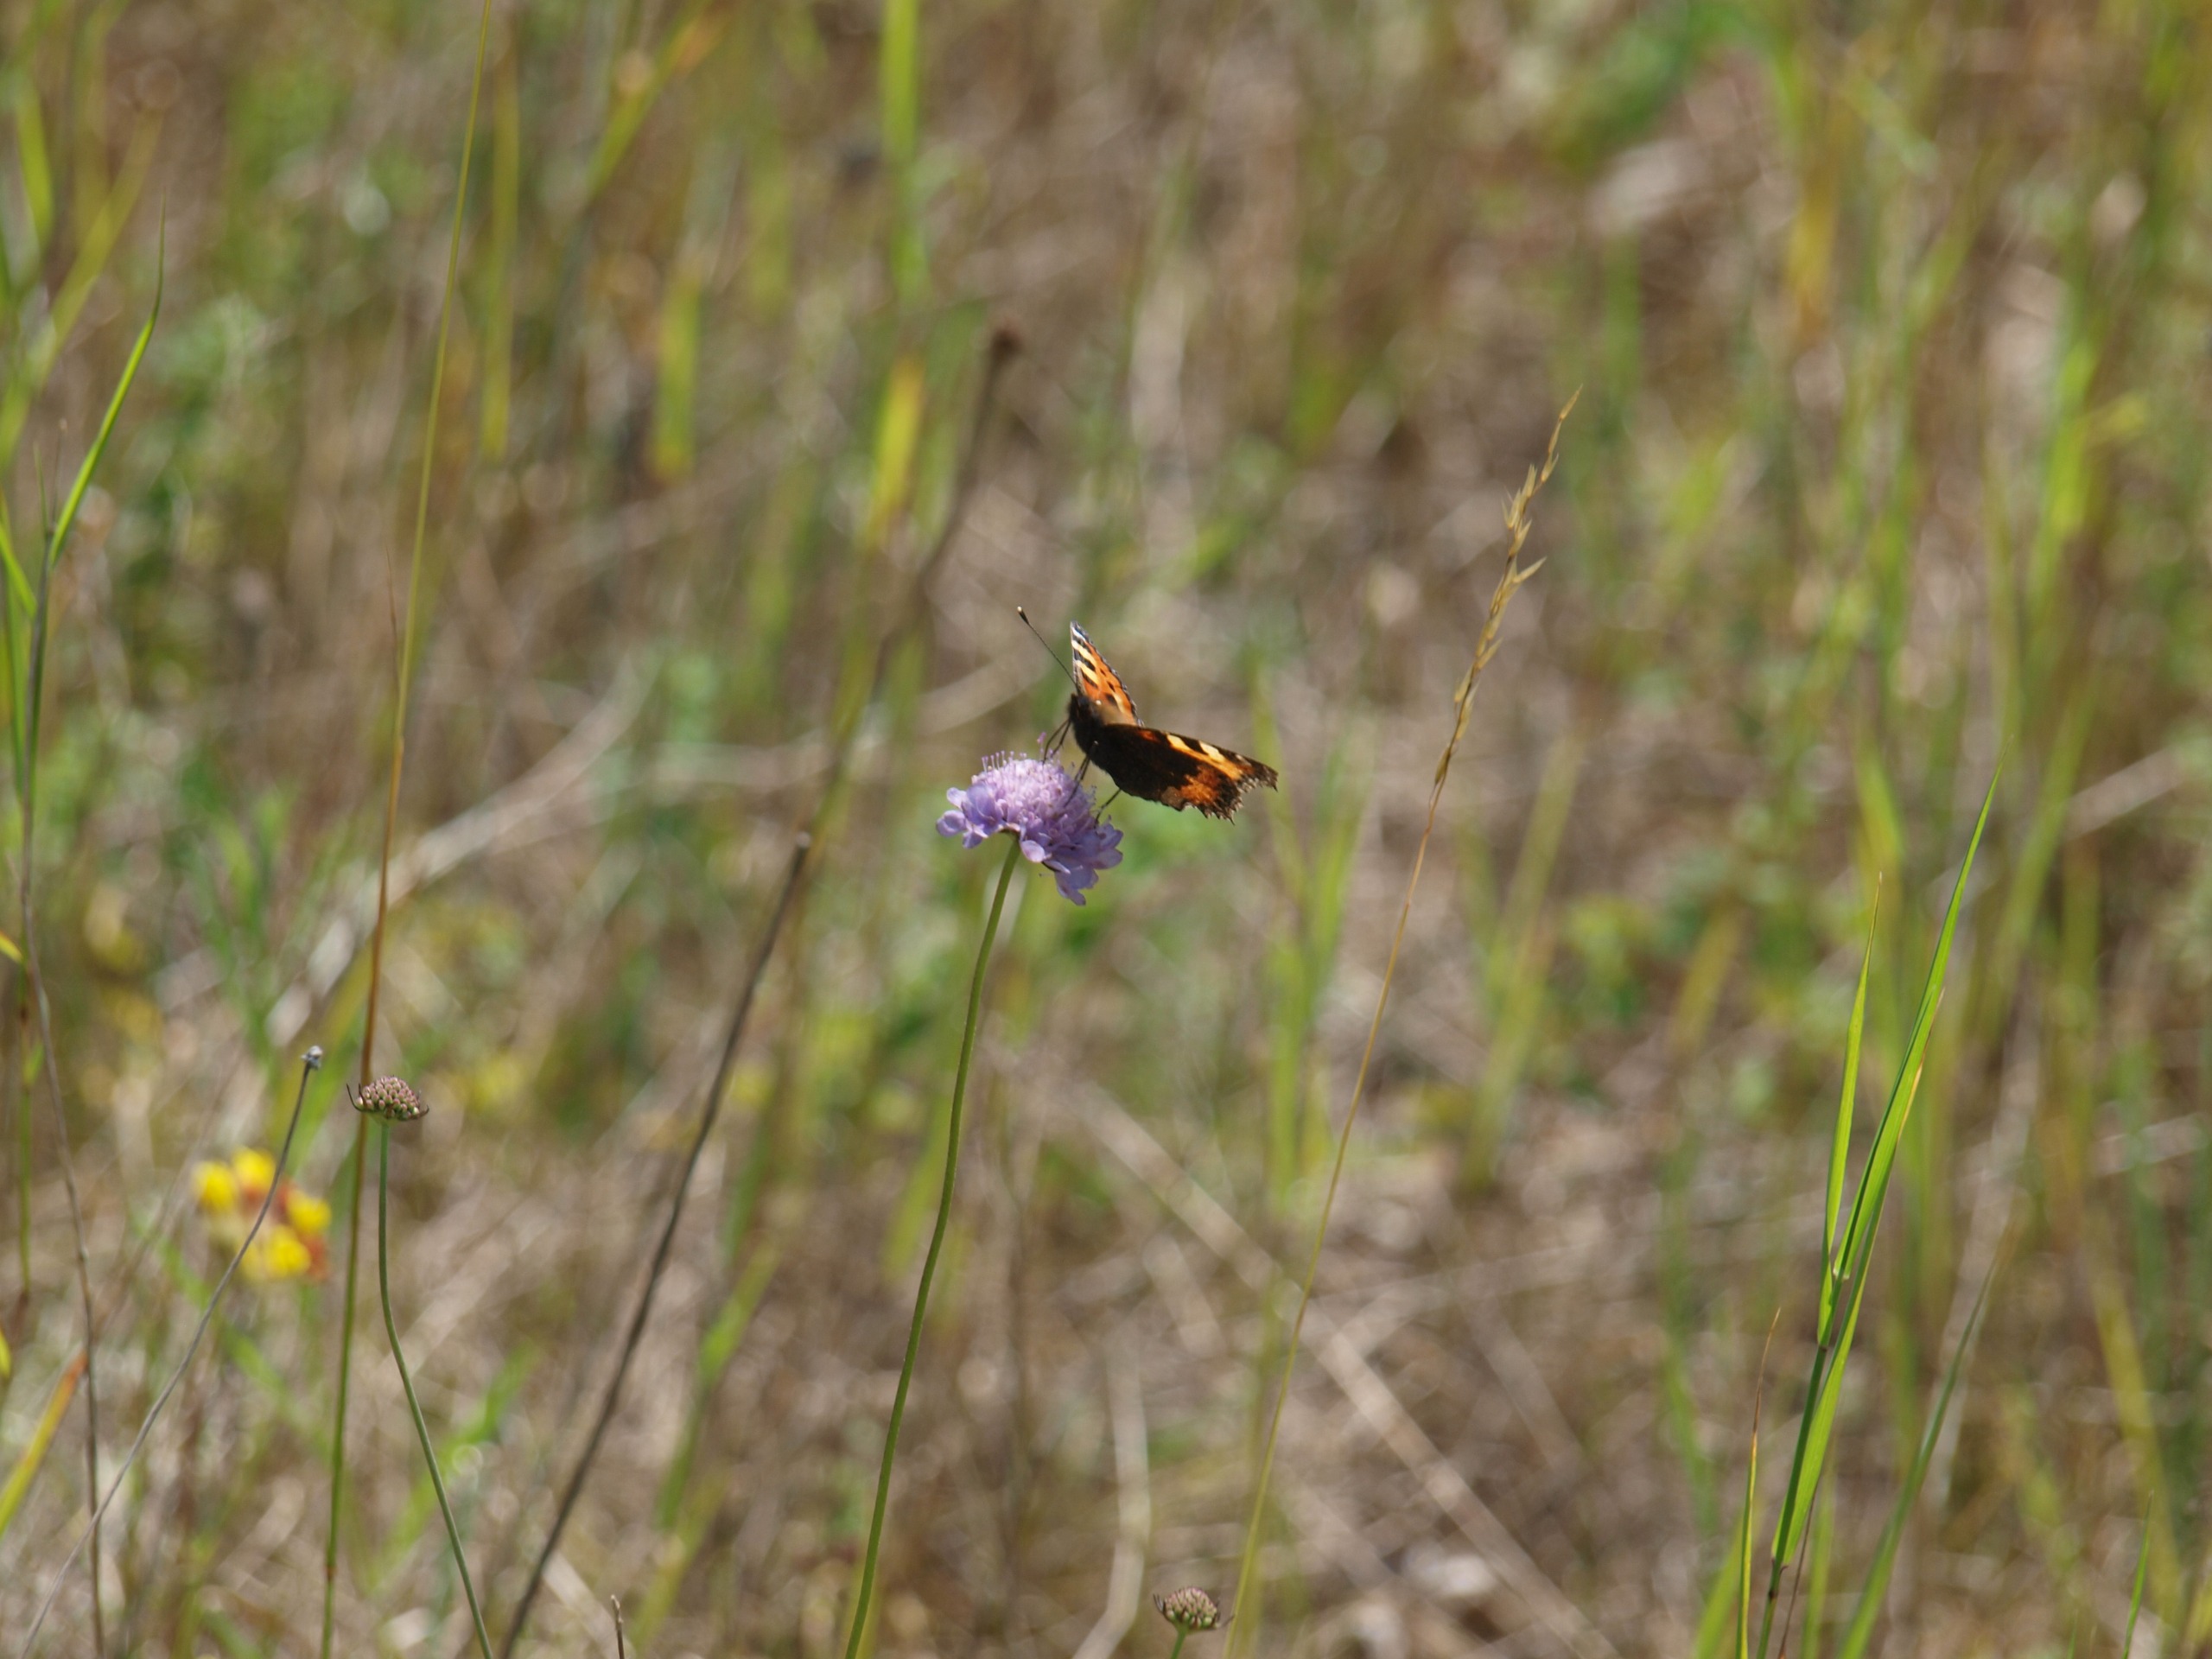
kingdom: Animalia
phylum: Arthropoda
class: Insecta
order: Lepidoptera
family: Nymphalidae
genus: Aglais
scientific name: Aglais urticae
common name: Nældens takvinge
